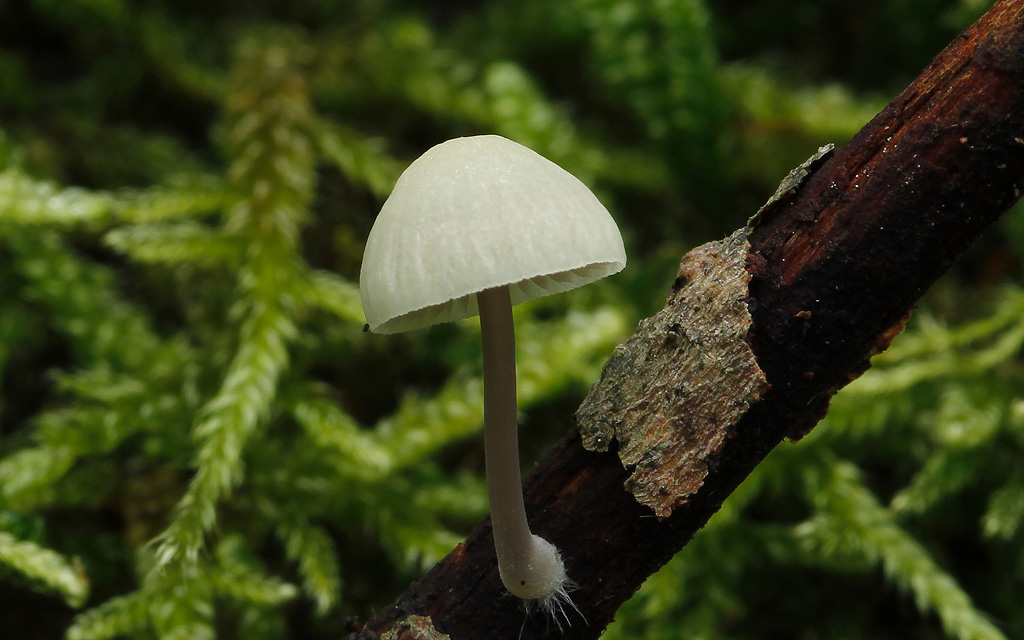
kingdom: Fungi
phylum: Basidiomycota
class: Agaricomycetes
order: Agaricales
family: Mycenaceae
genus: Mycena
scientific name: Mycena arcangeliana
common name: oliven-huesvamp
